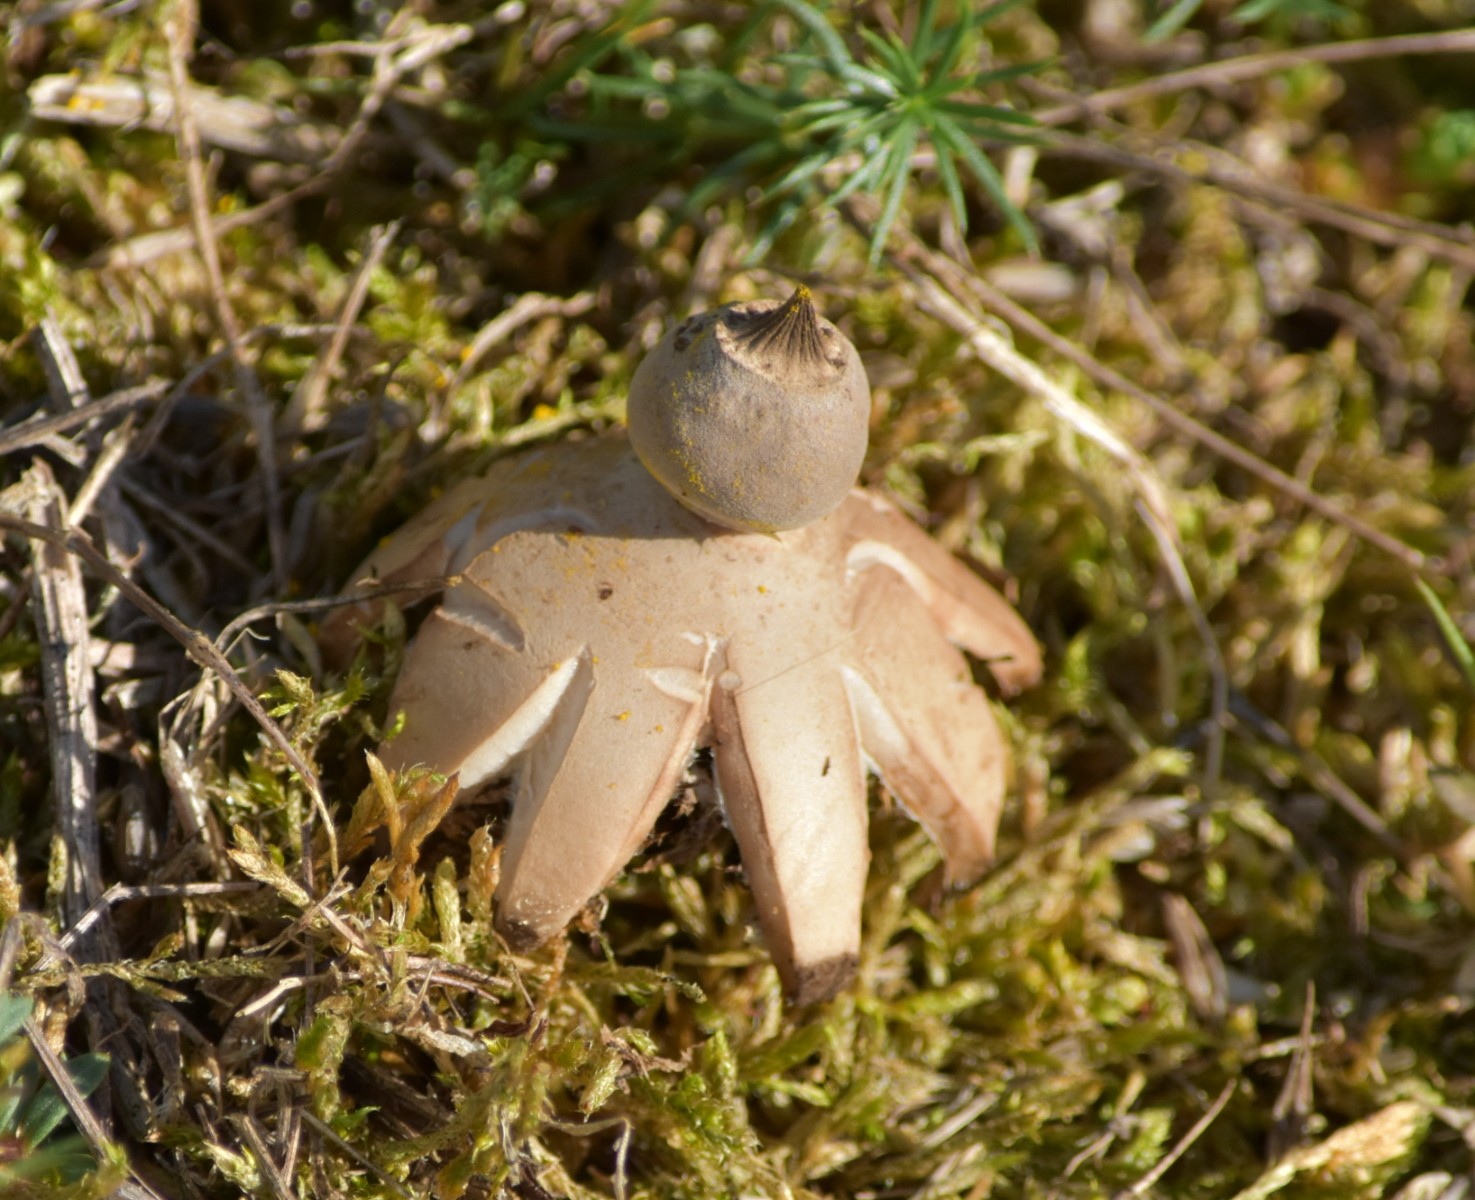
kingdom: Fungi
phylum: Basidiomycota
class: Agaricomycetes
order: Geastrales
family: Geastraceae
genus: Geastrum
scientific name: Geastrum striatum
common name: dværg-stjernebold
